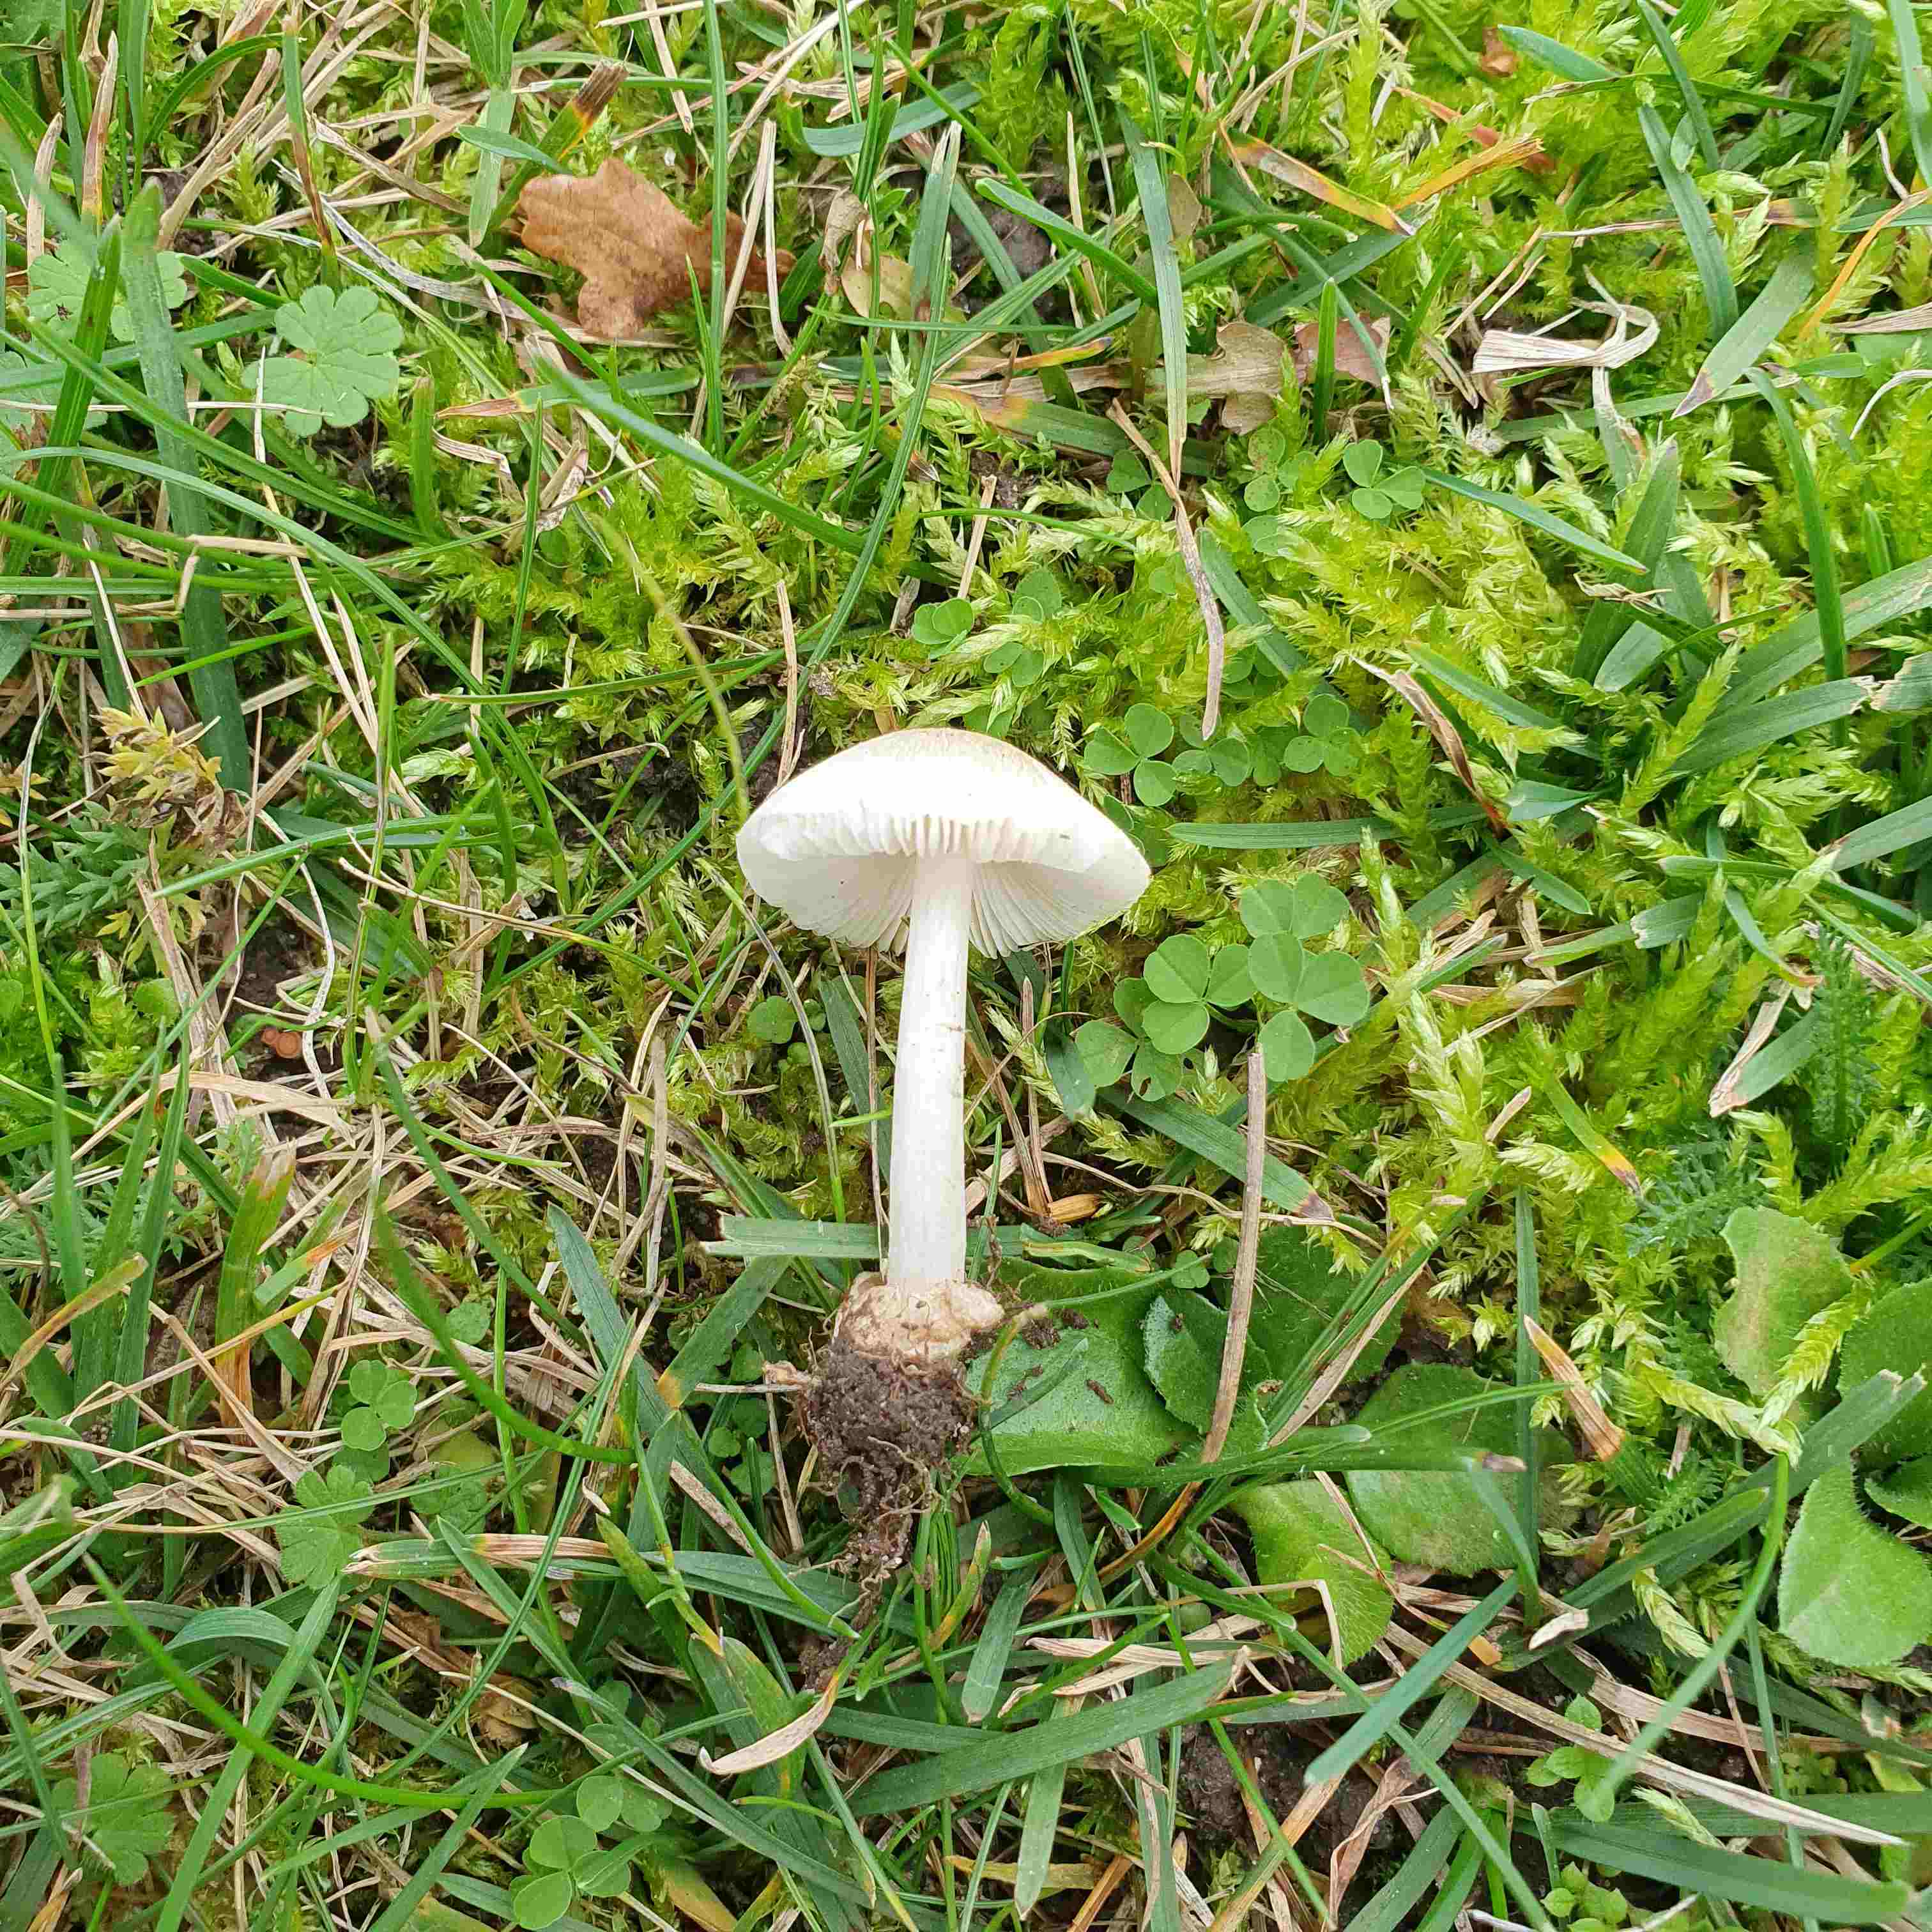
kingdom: Fungi
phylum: Basidiomycota
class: Agaricomycetes
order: Agaricales
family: Pluteaceae
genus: Volvariella
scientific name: Volvariella murinella
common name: musegrå posesvamp
